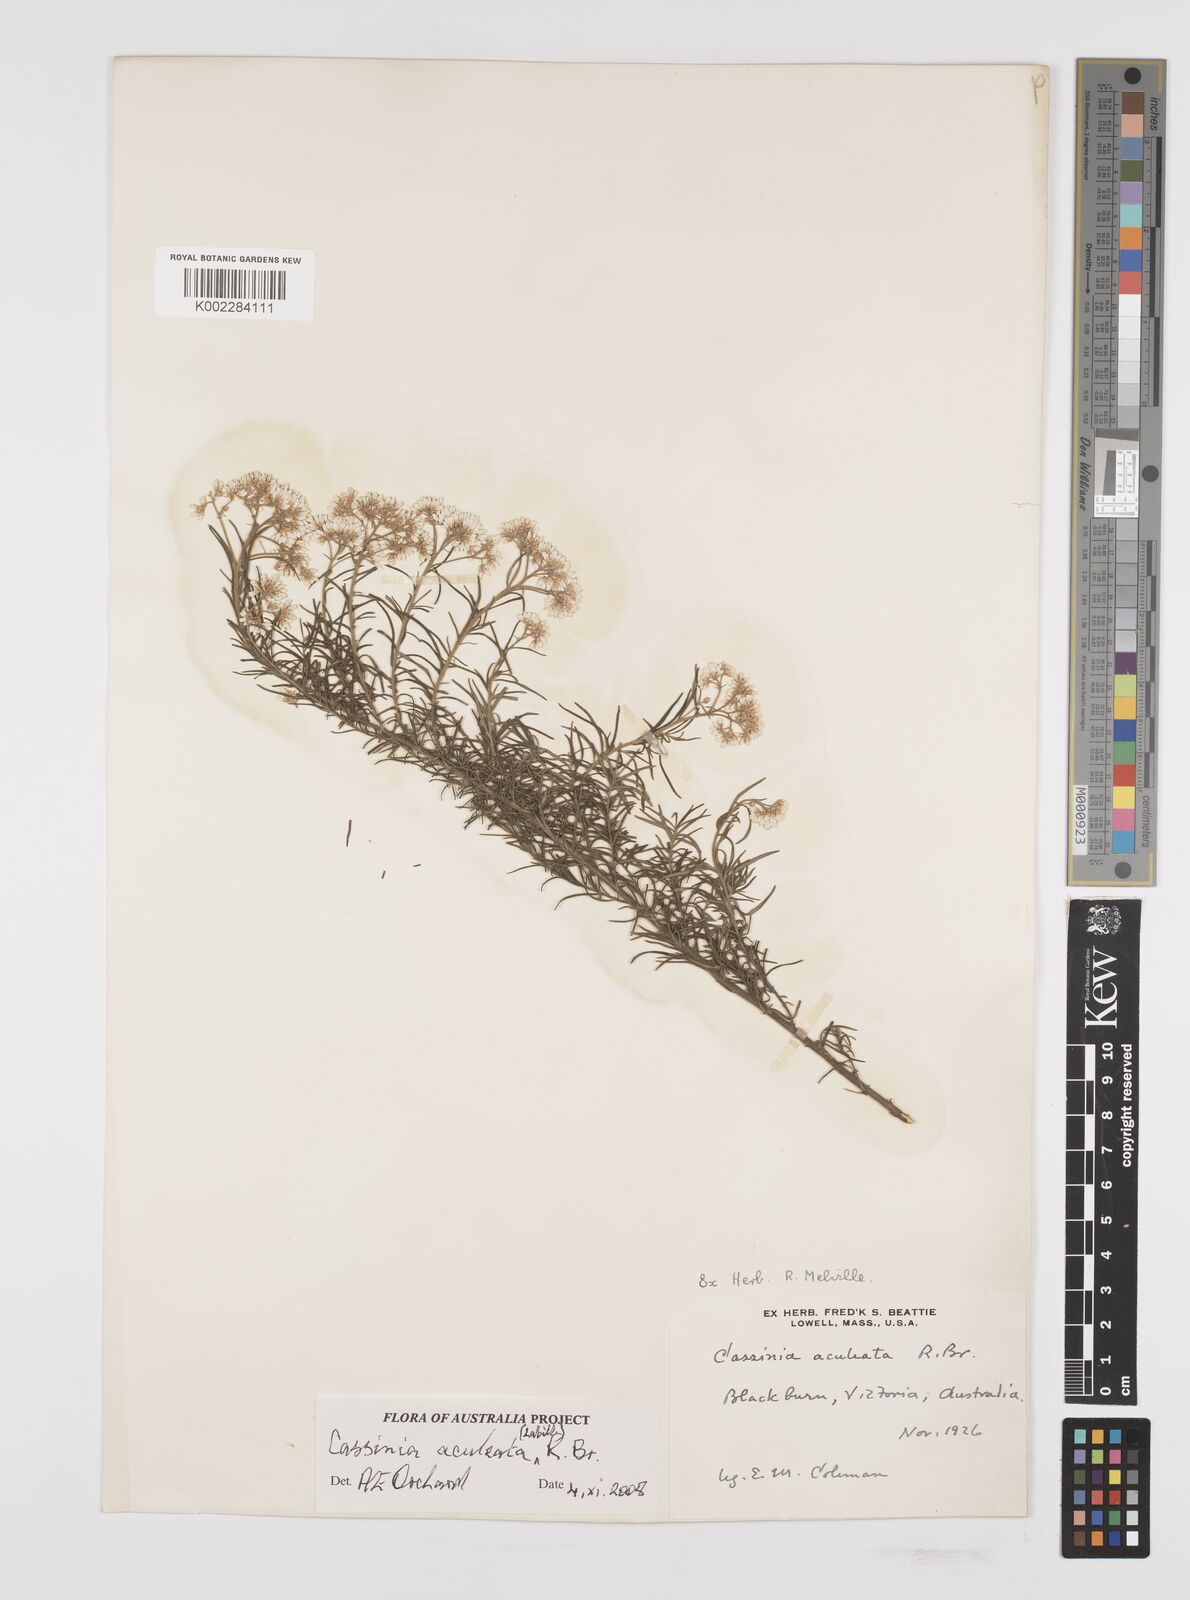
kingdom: Plantae
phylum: Tracheophyta
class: Magnoliopsida
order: Asterales
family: Asteraceae
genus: Cassinia
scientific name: Cassinia aculeata
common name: Australian tauhinu
